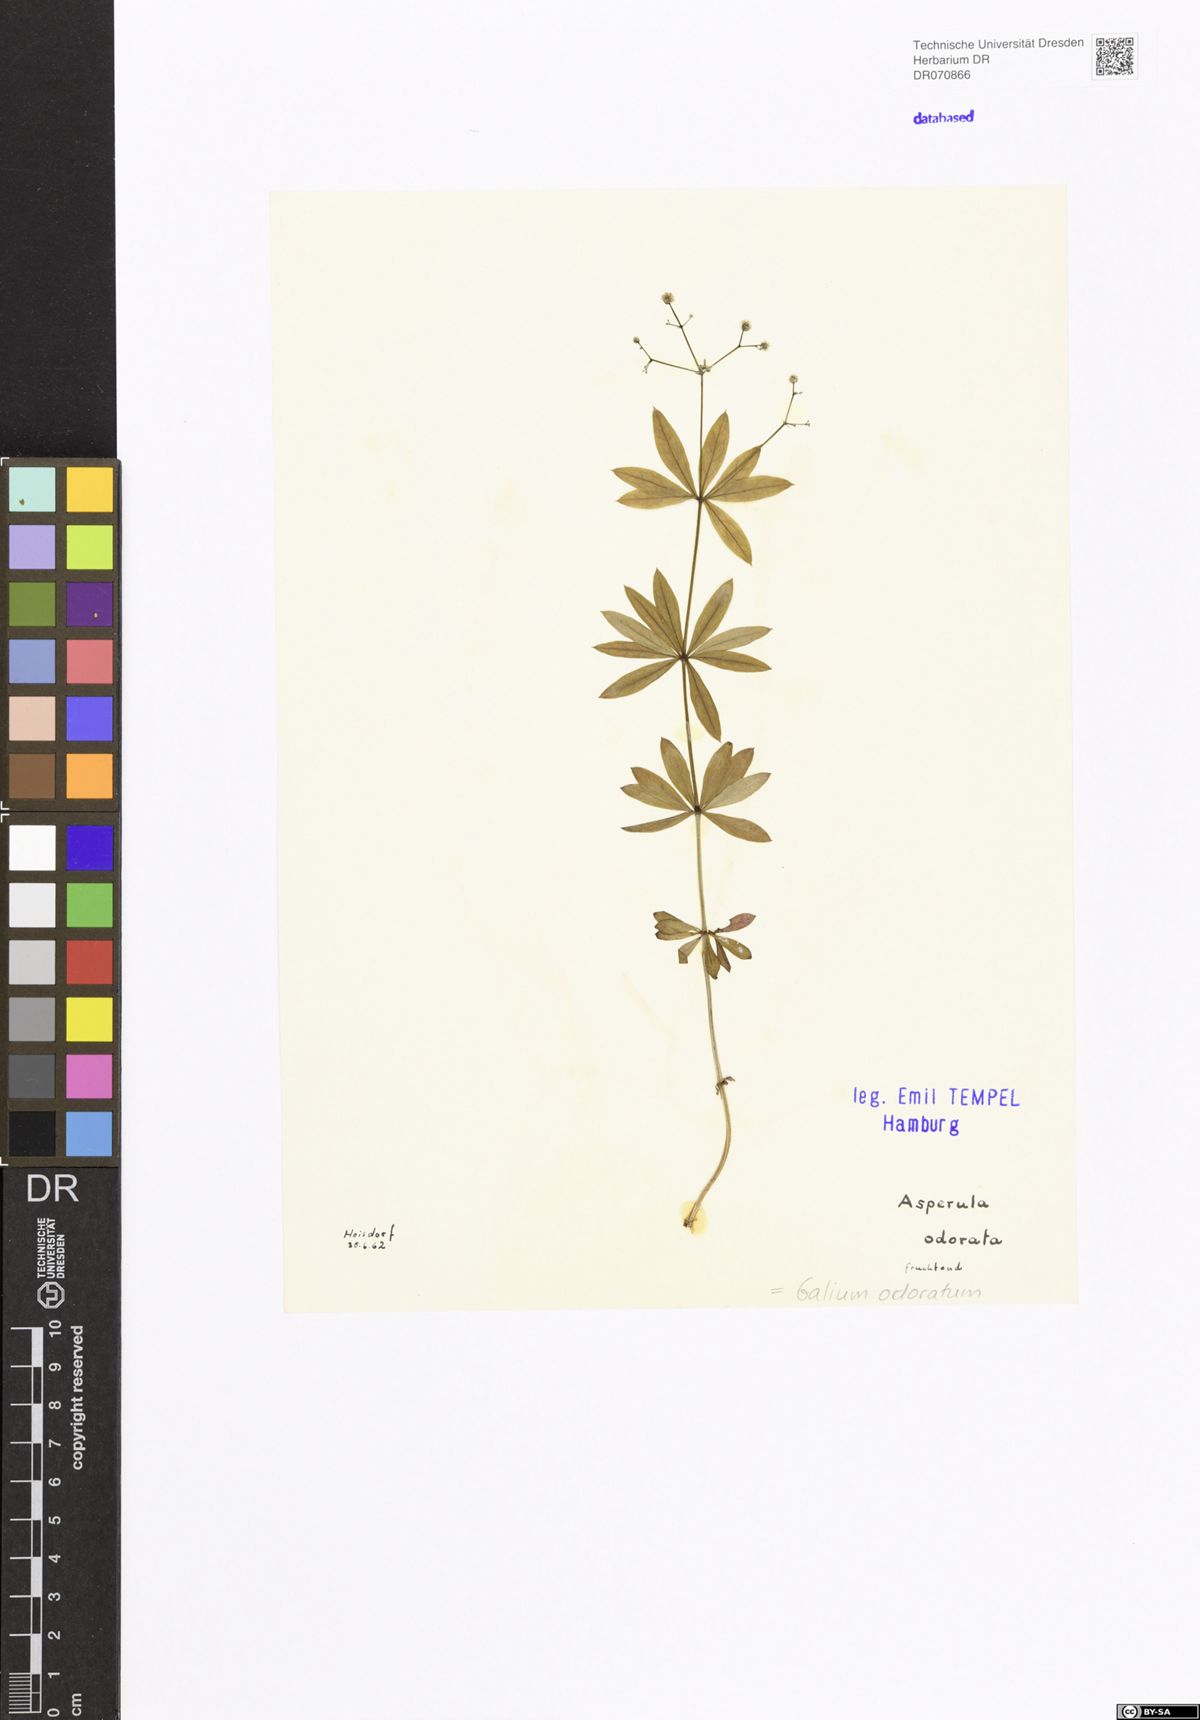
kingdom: Plantae
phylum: Tracheophyta
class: Magnoliopsida
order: Gentianales
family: Rubiaceae
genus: Galium
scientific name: Galium odoratum
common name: Sweet woodruff
